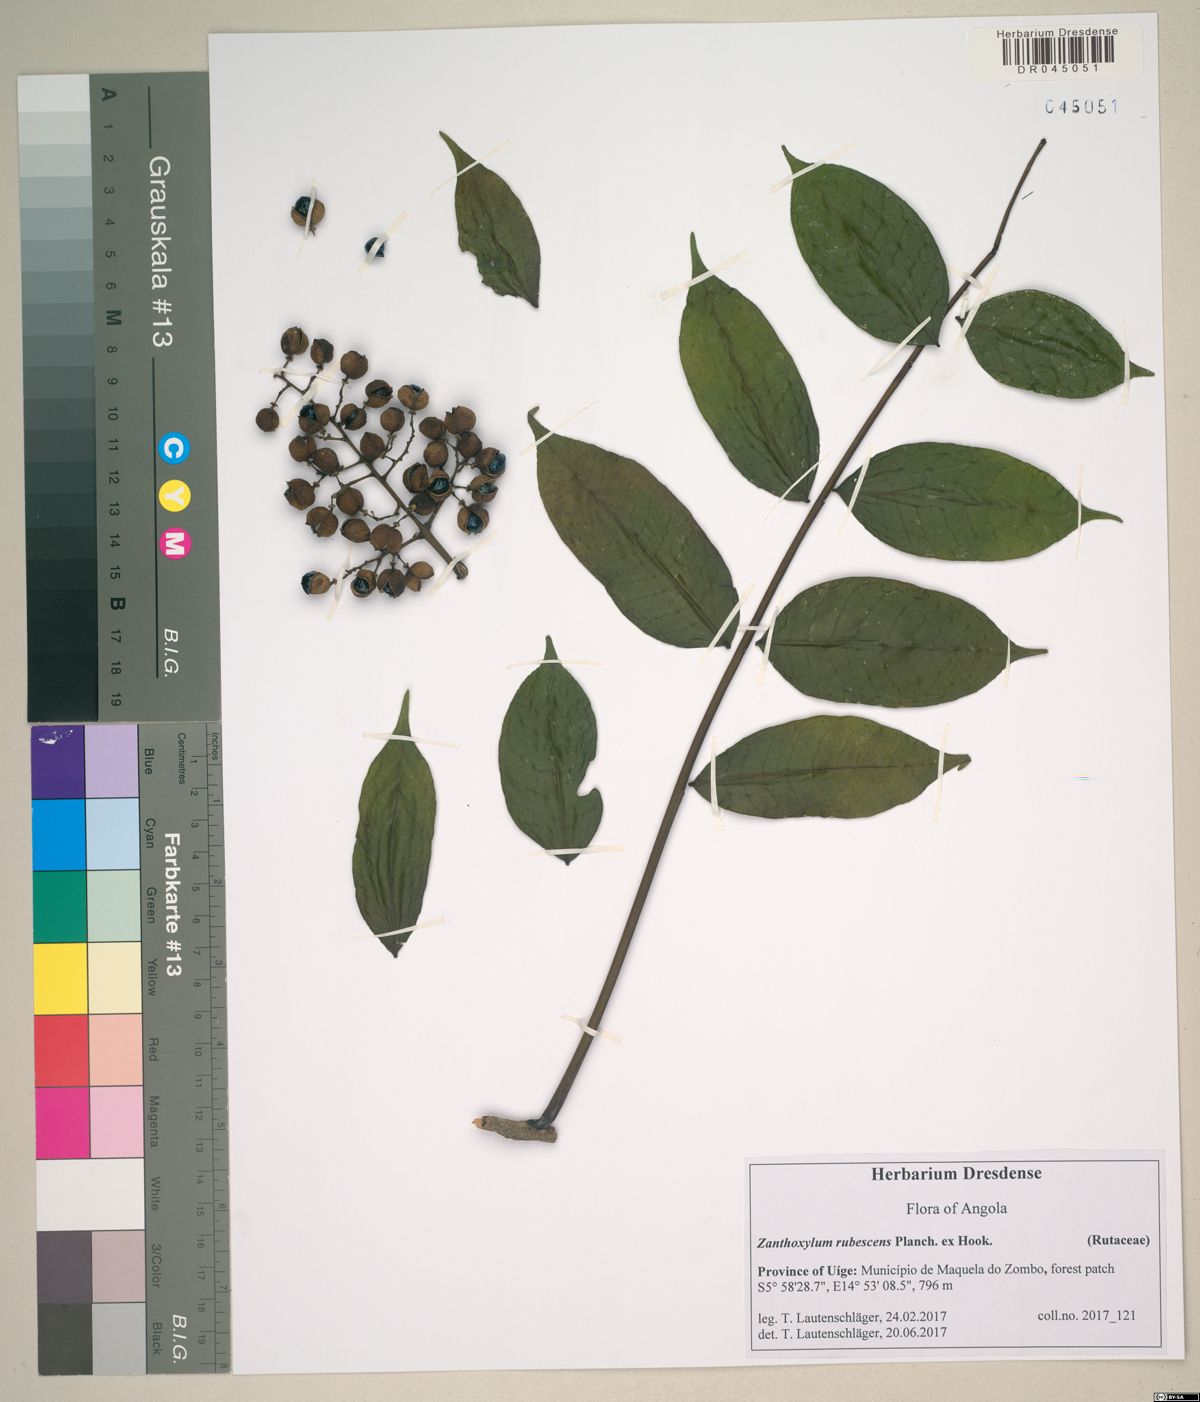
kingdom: Plantae
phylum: Tracheophyta
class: Magnoliopsida
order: Sapindales
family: Rutaceae
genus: Zanthoxylum
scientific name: Zanthoxylum rubescens
